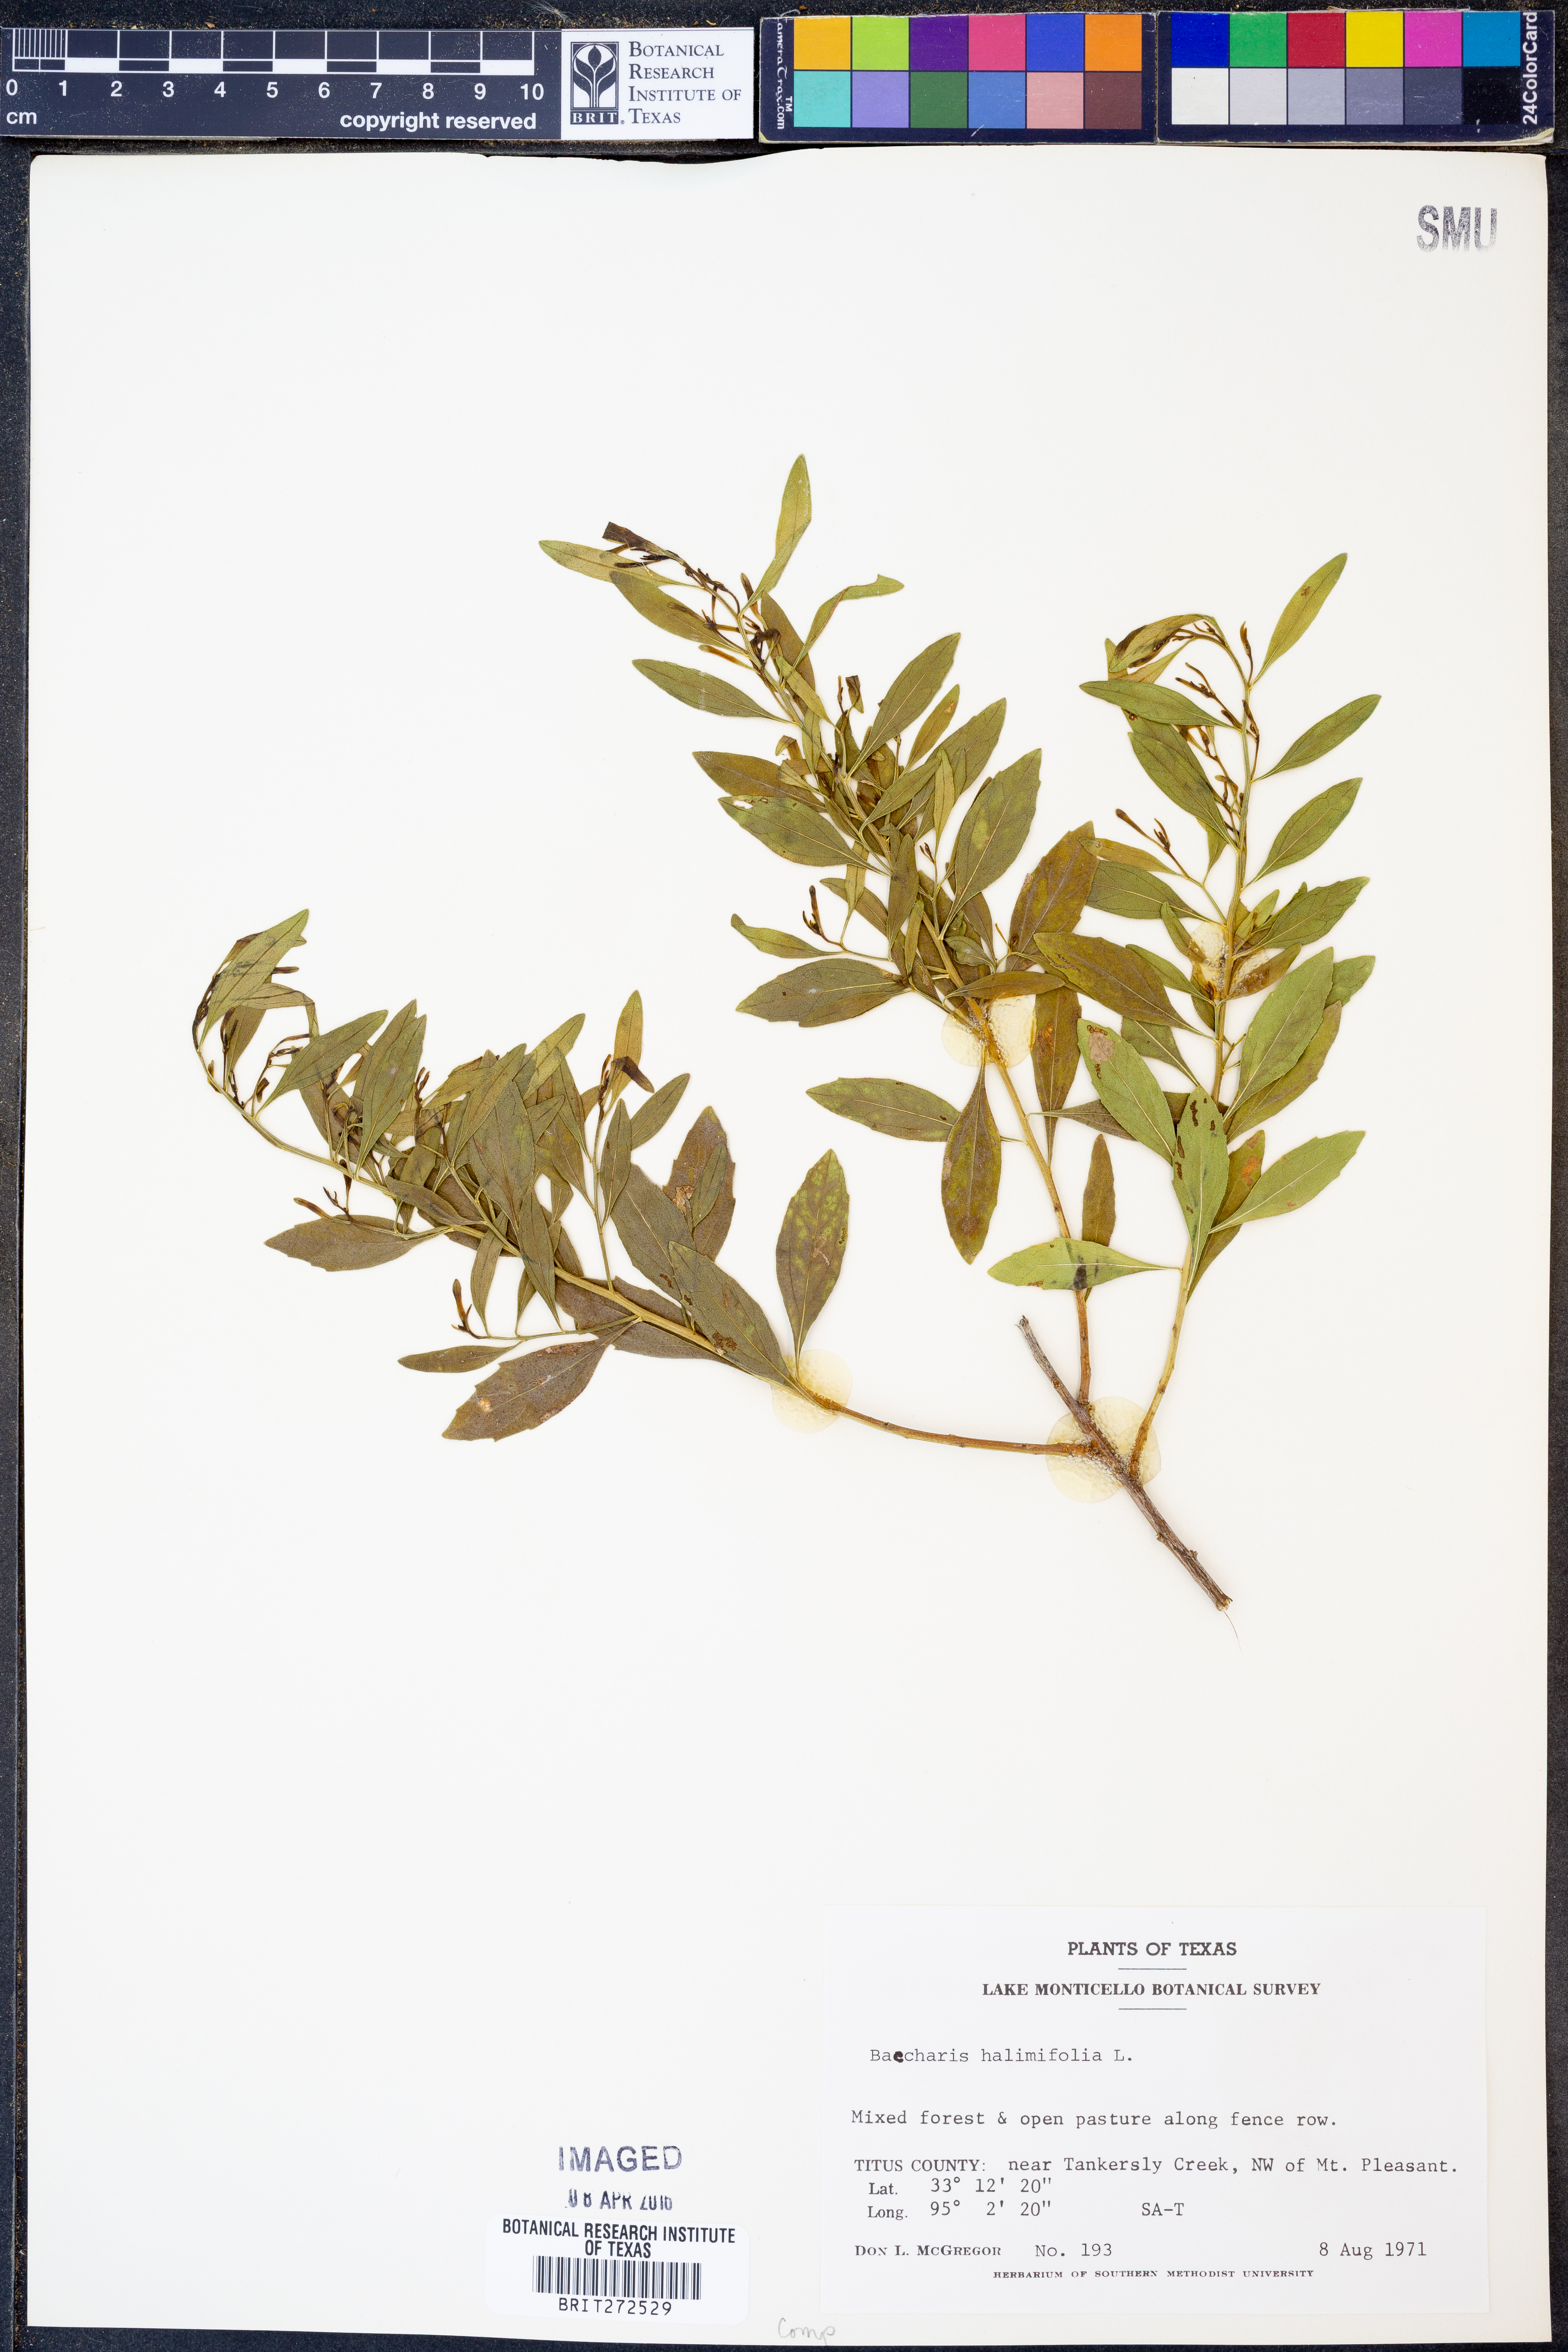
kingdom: Plantae
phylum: Tracheophyta
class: Magnoliopsida
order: Asterales
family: Asteraceae
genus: Nidorella
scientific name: Nidorella ivifolia
